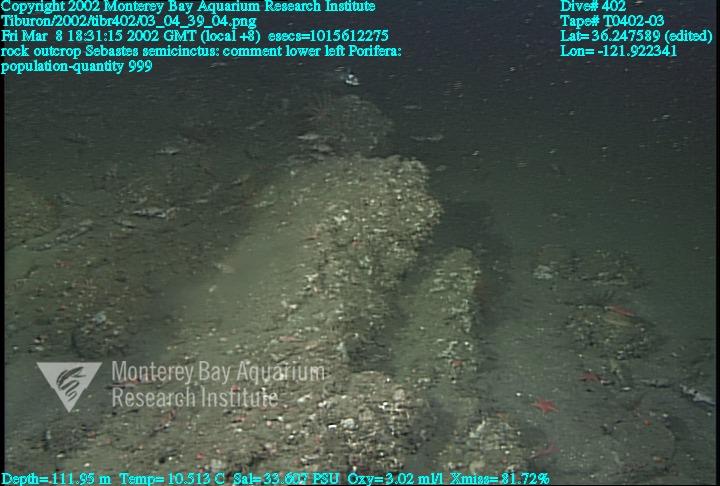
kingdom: Animalia
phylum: Porifera
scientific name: Porifera
